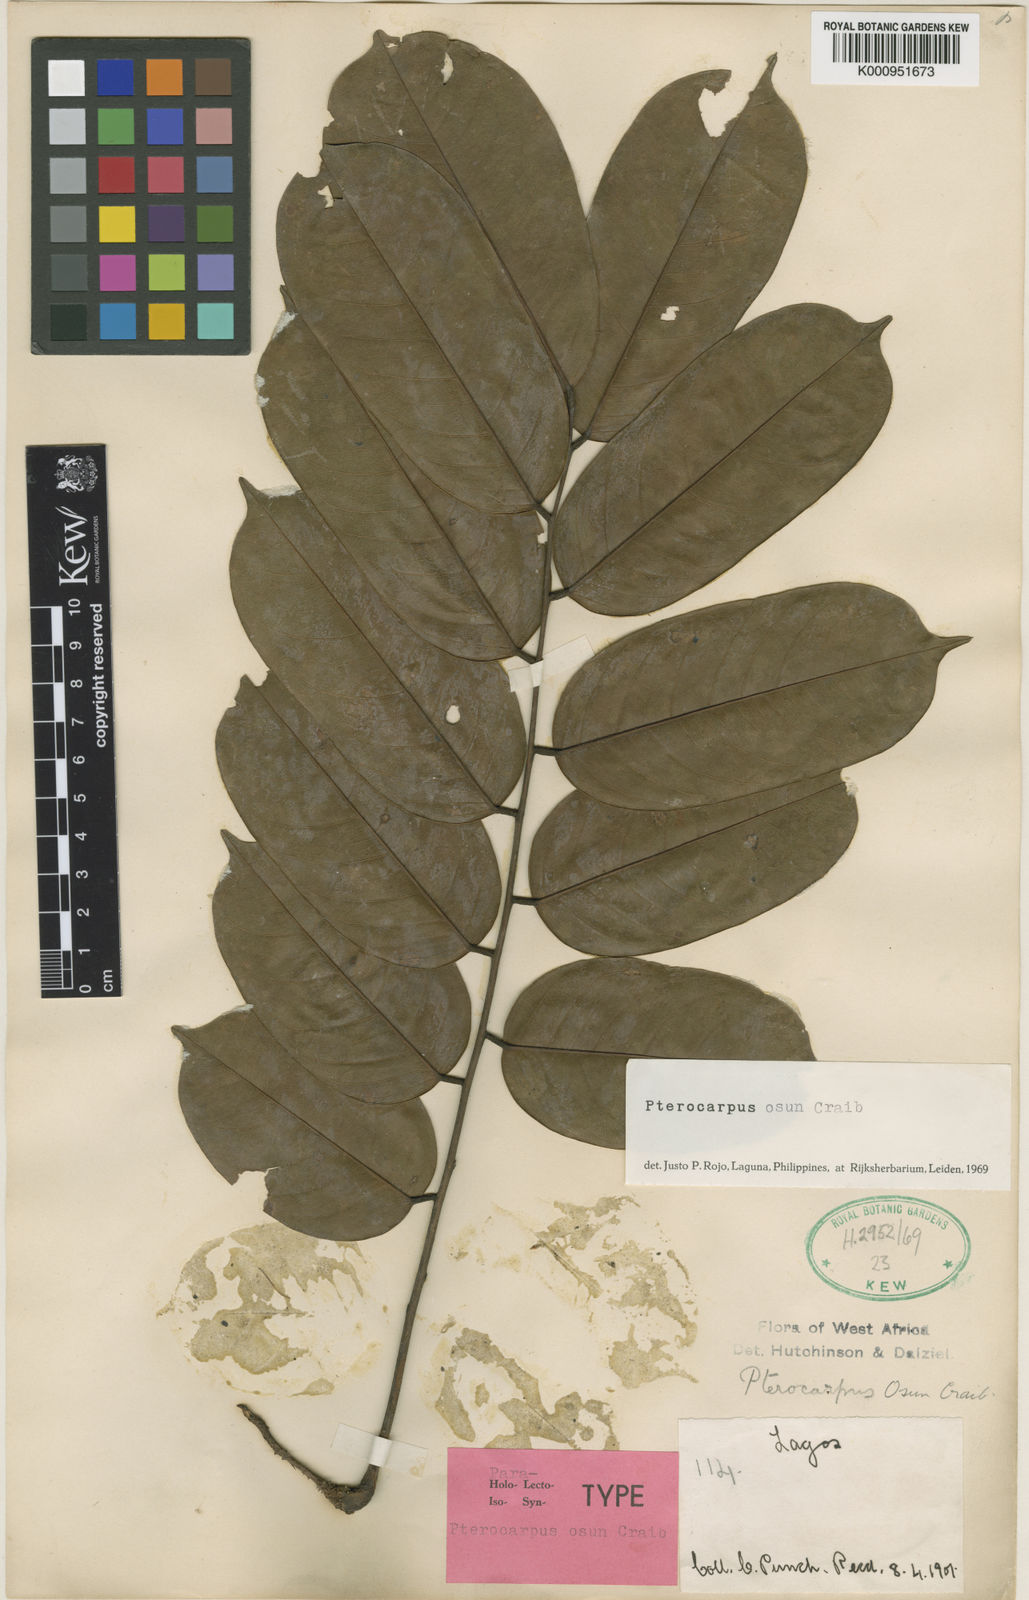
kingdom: Plantae
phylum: Tracheophyta
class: Magnoliopsida
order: Fabales
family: Fabaceae
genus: Pterocarpus
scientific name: Pterocarpus osun
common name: Camwood
